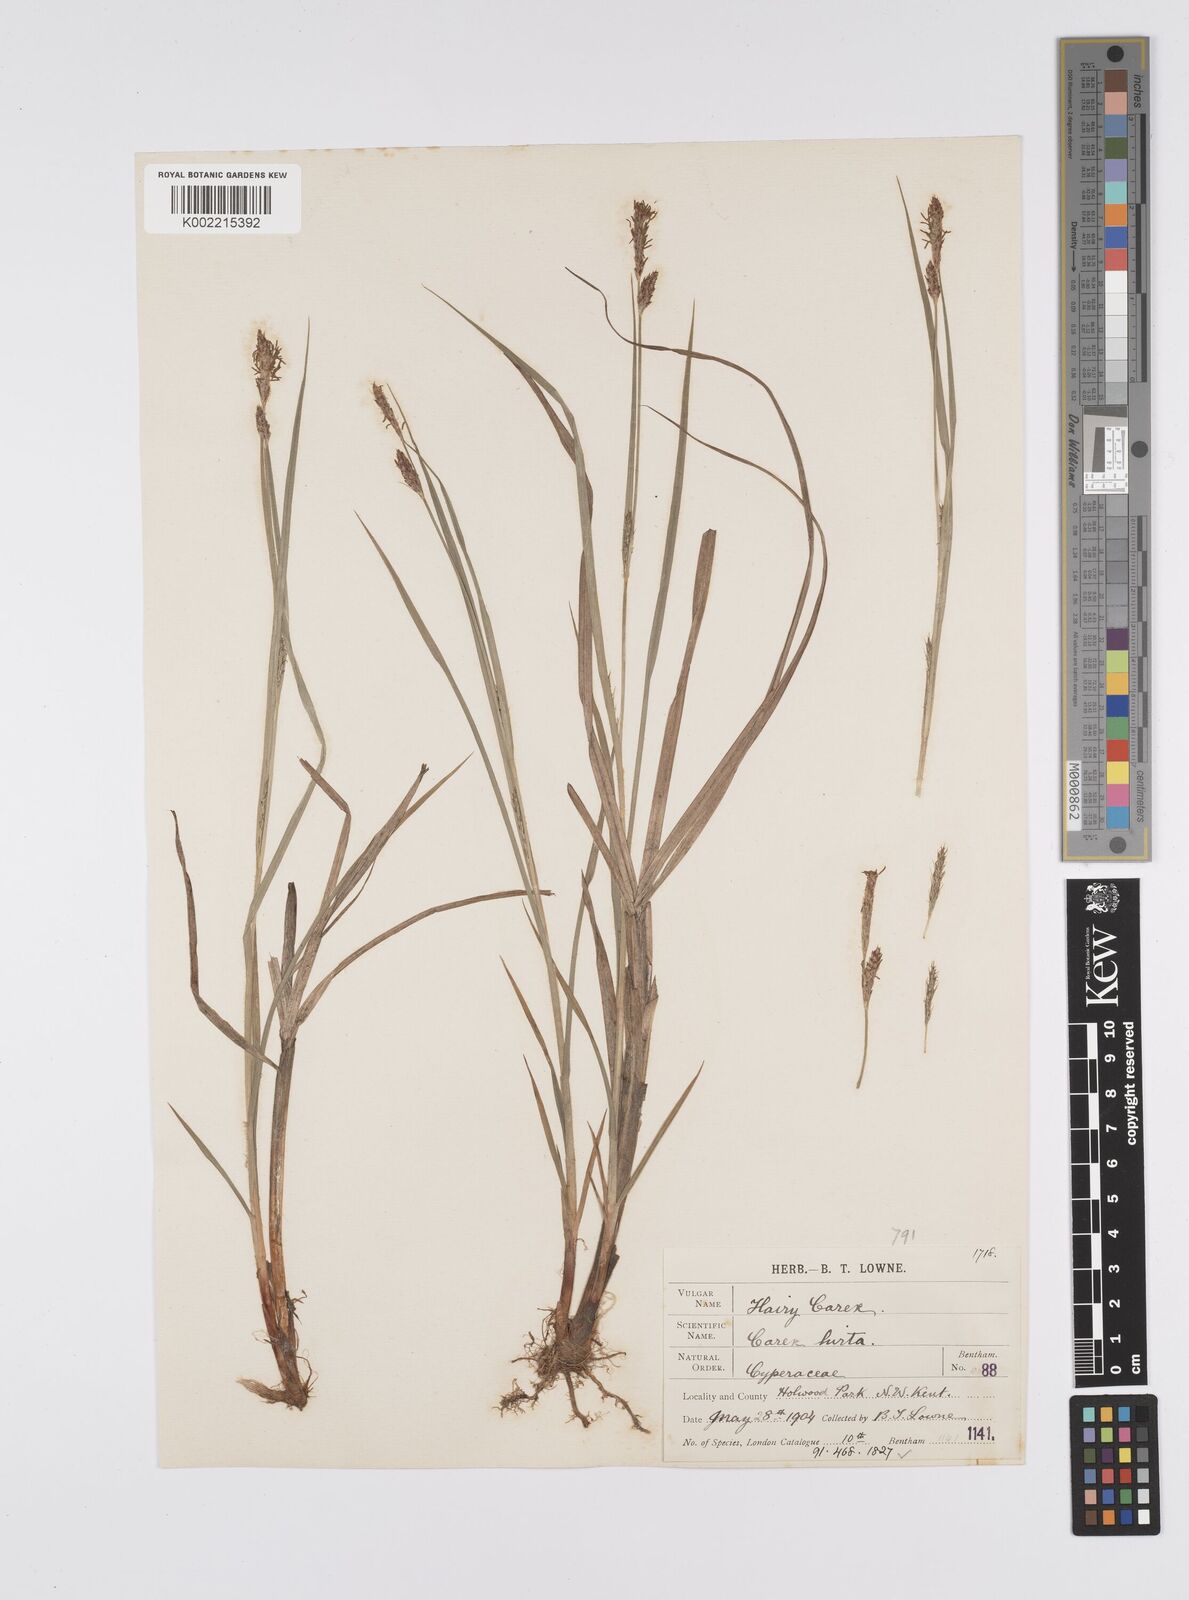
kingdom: Plantae
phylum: Tracheophyta
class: Liliopsida
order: Poales
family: Cyperaceae
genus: Carex
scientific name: Carex hirta
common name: Hairy sedge
